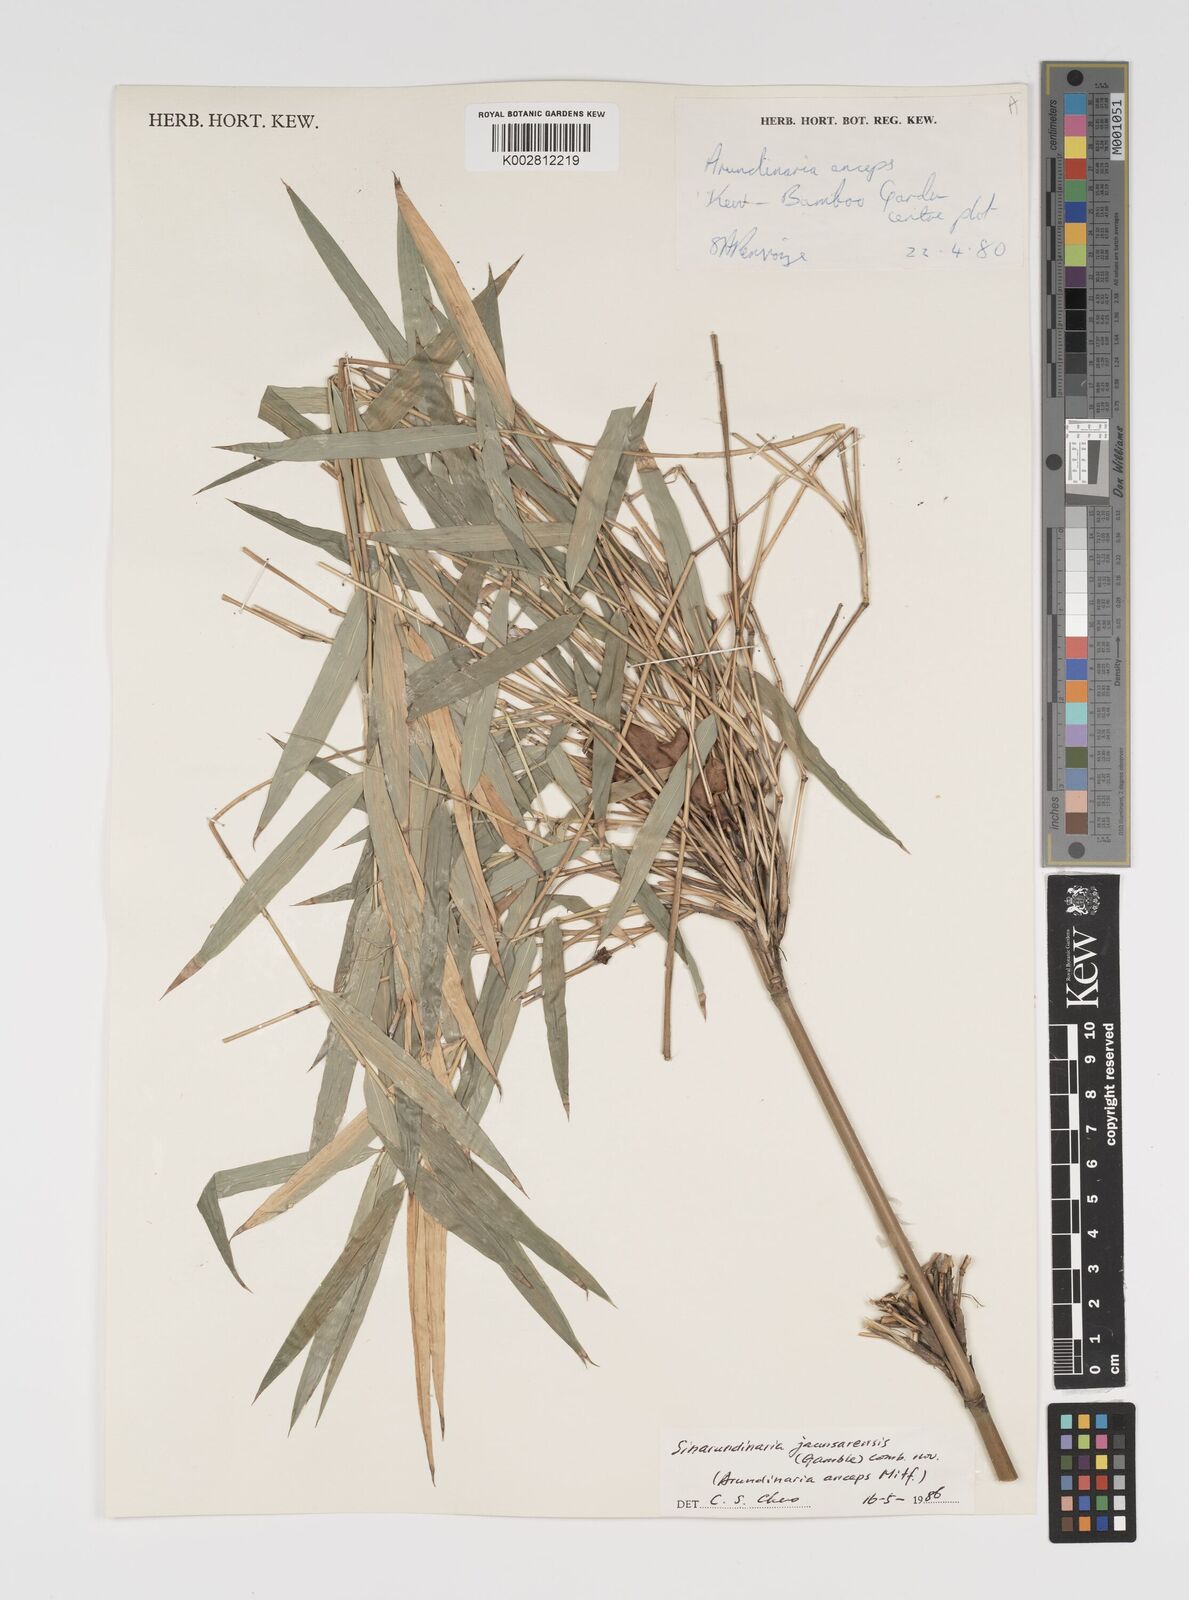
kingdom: Plantae
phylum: Tracheophyta
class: Liliopsida
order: Poales
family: Poaceae
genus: Yushania
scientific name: Yushania anceps
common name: Indian fountain-bamboo
